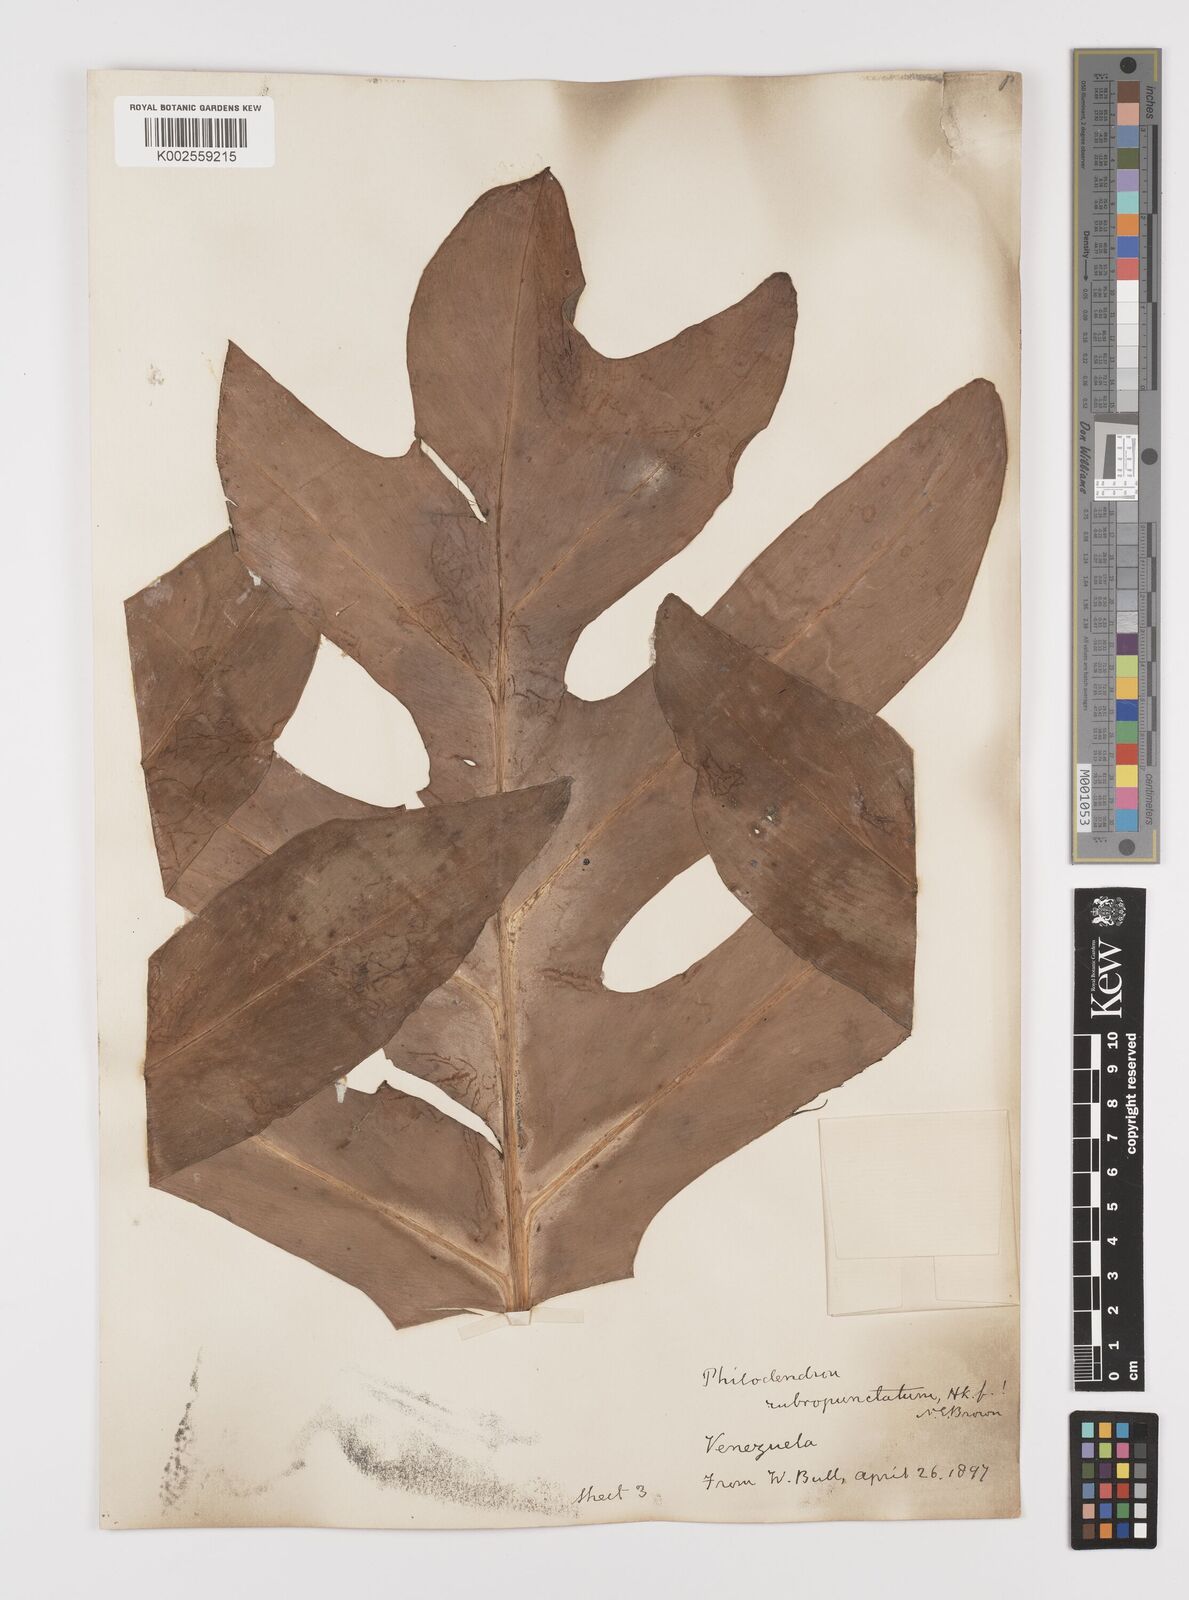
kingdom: Plantae
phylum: Tracheophyta
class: Liliopsida
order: Alismatales
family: Araceae
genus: Philodendron
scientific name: Philodendron pinnatifidum
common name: Comb-leaf philodendron
